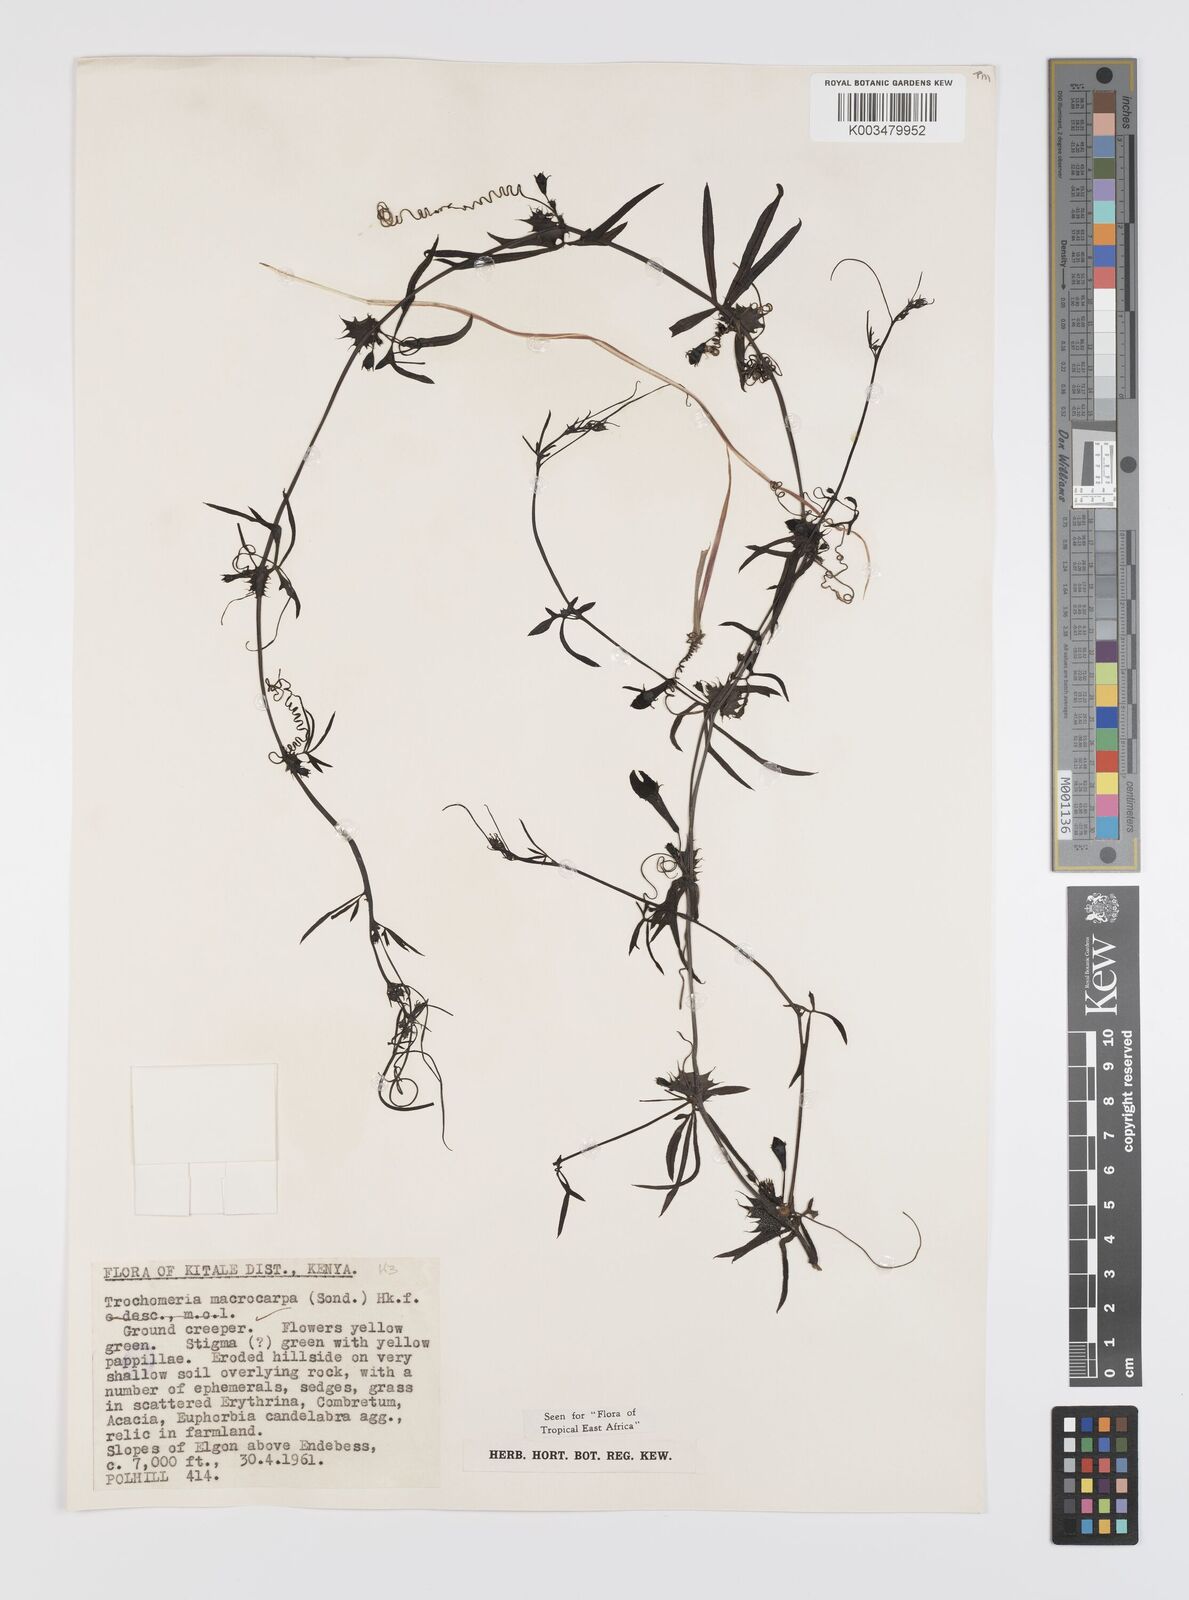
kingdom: Plantae
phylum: Tracheophyta
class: Magnoliopsida
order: Cucurbitales
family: Cucurbitaceae
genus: Trochomeria
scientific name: Trochomeria macrocarpa
